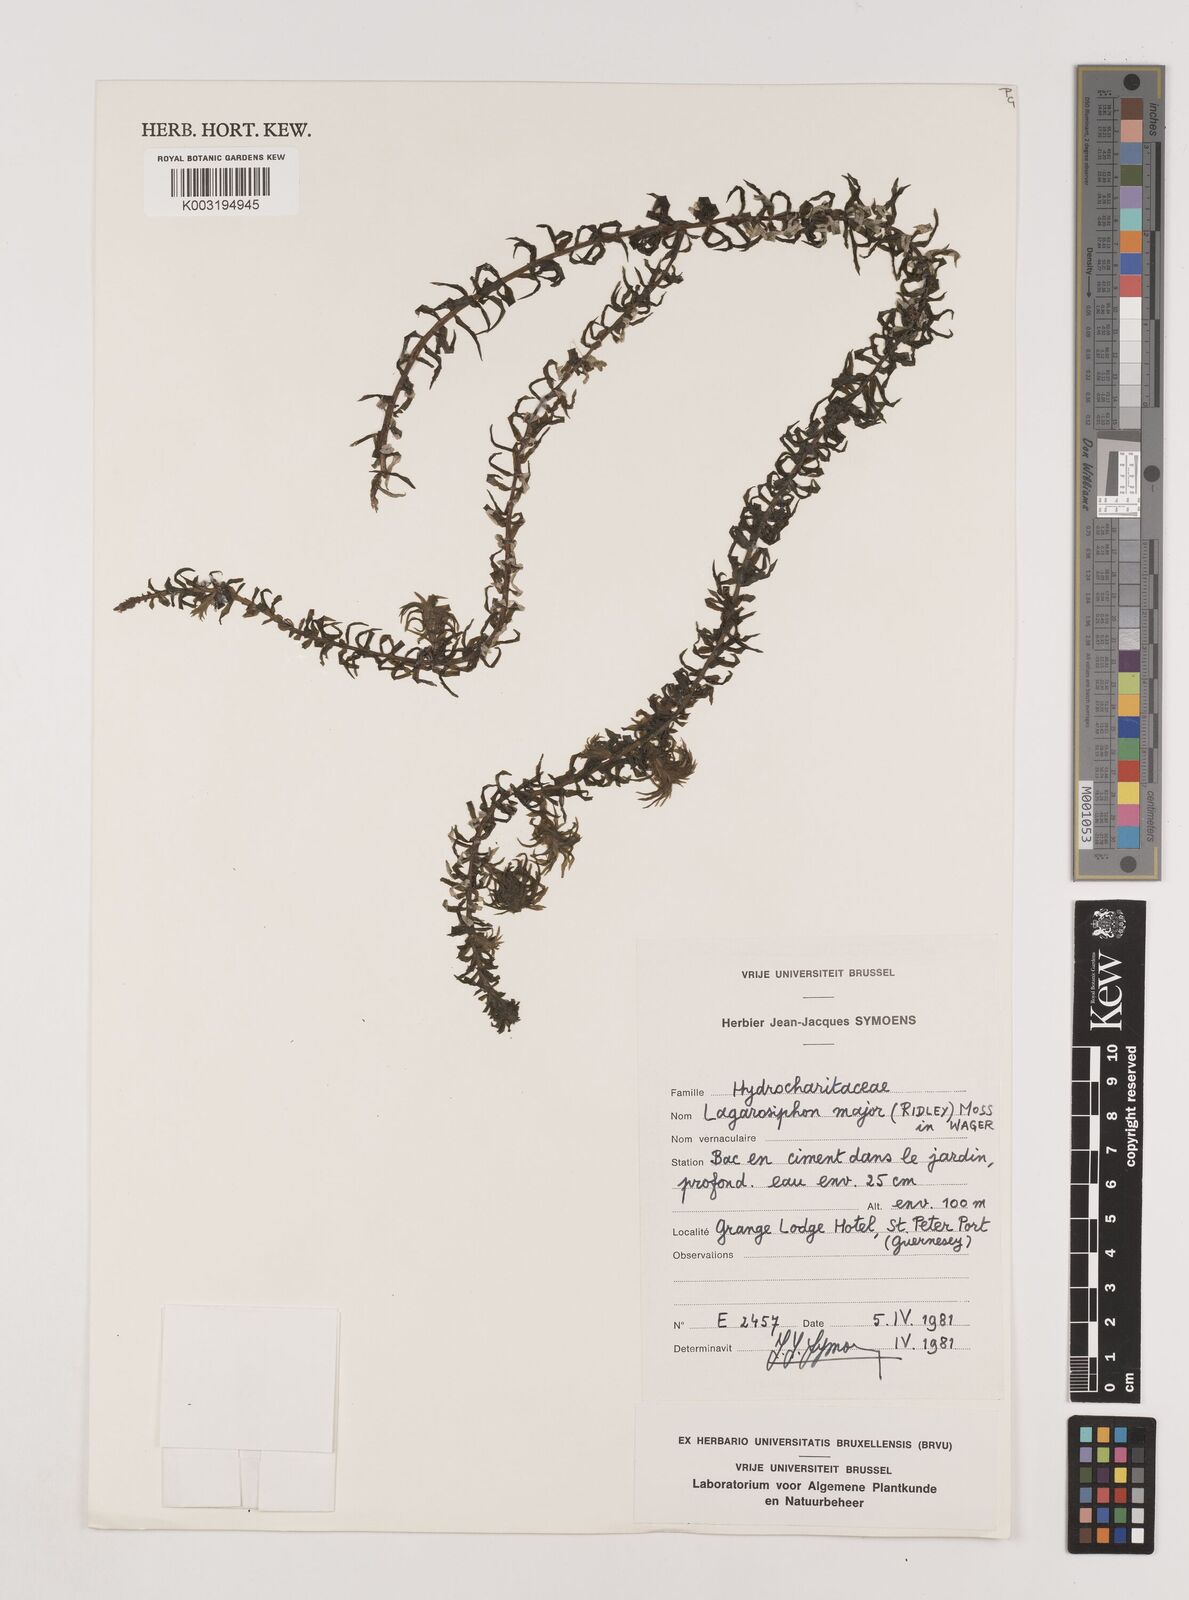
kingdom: Plantae
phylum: Tracheophyta
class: Liliopsida
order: Alismatales
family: Hydrocharitaceae
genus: Lagarosiphon
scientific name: Lagarosiphon major
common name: Curly waterweed
